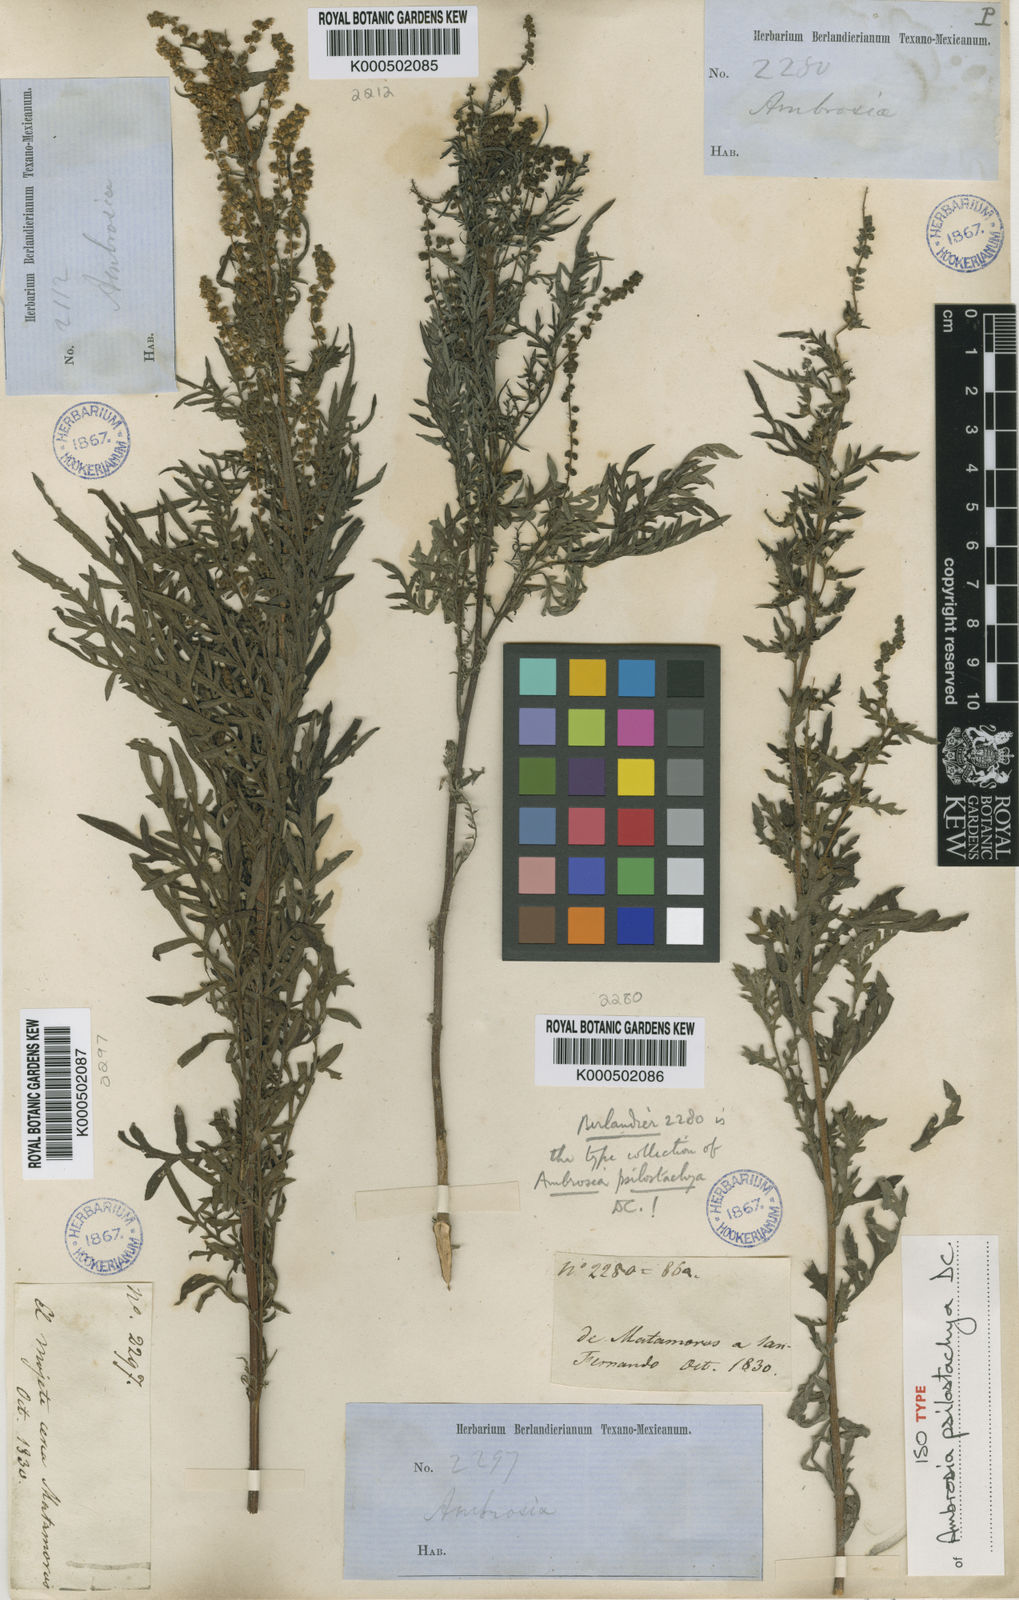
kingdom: Plantae
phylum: Tracheophyta
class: Magnoliopsida
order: Asterales
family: Asteraceae
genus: Ambrosia
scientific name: Ambrosia psilostachya
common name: Perennial ragweed
